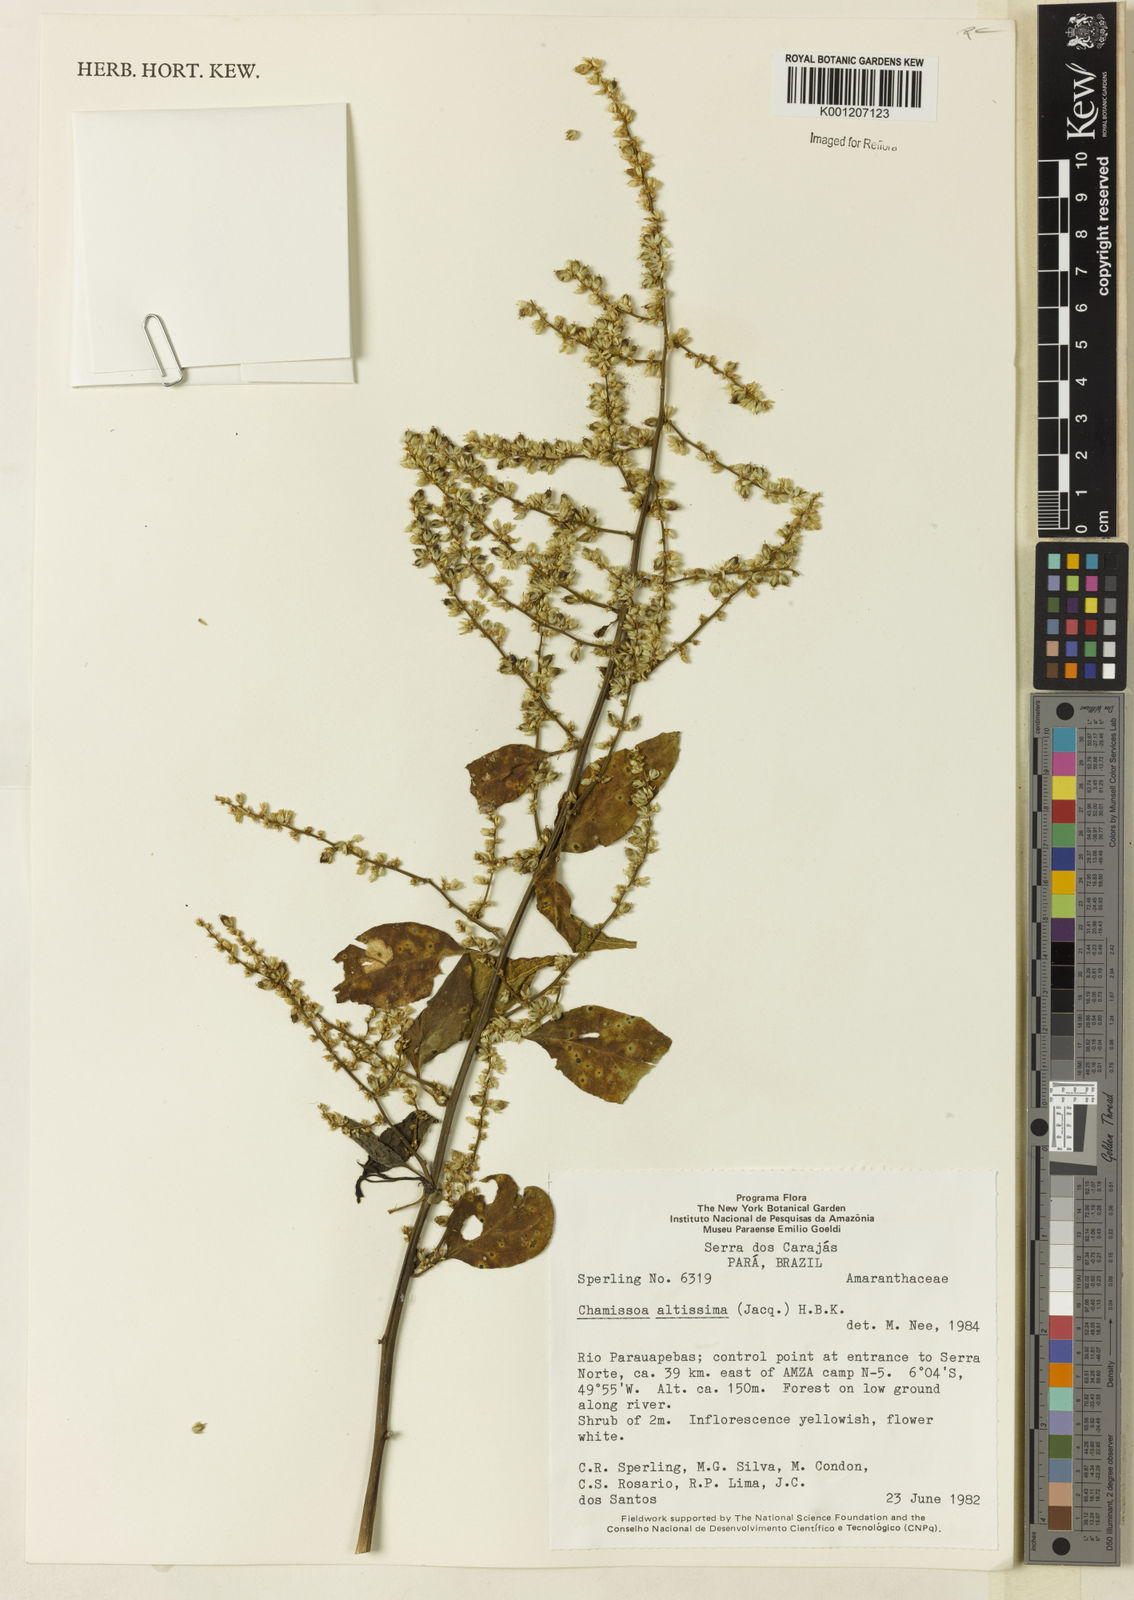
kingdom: Plantae
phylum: Tracheophyta
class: Magnoliopsida
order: Caryophyllales
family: Amaranthaceae
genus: Chamissoa
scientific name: Chamissoa altissima
